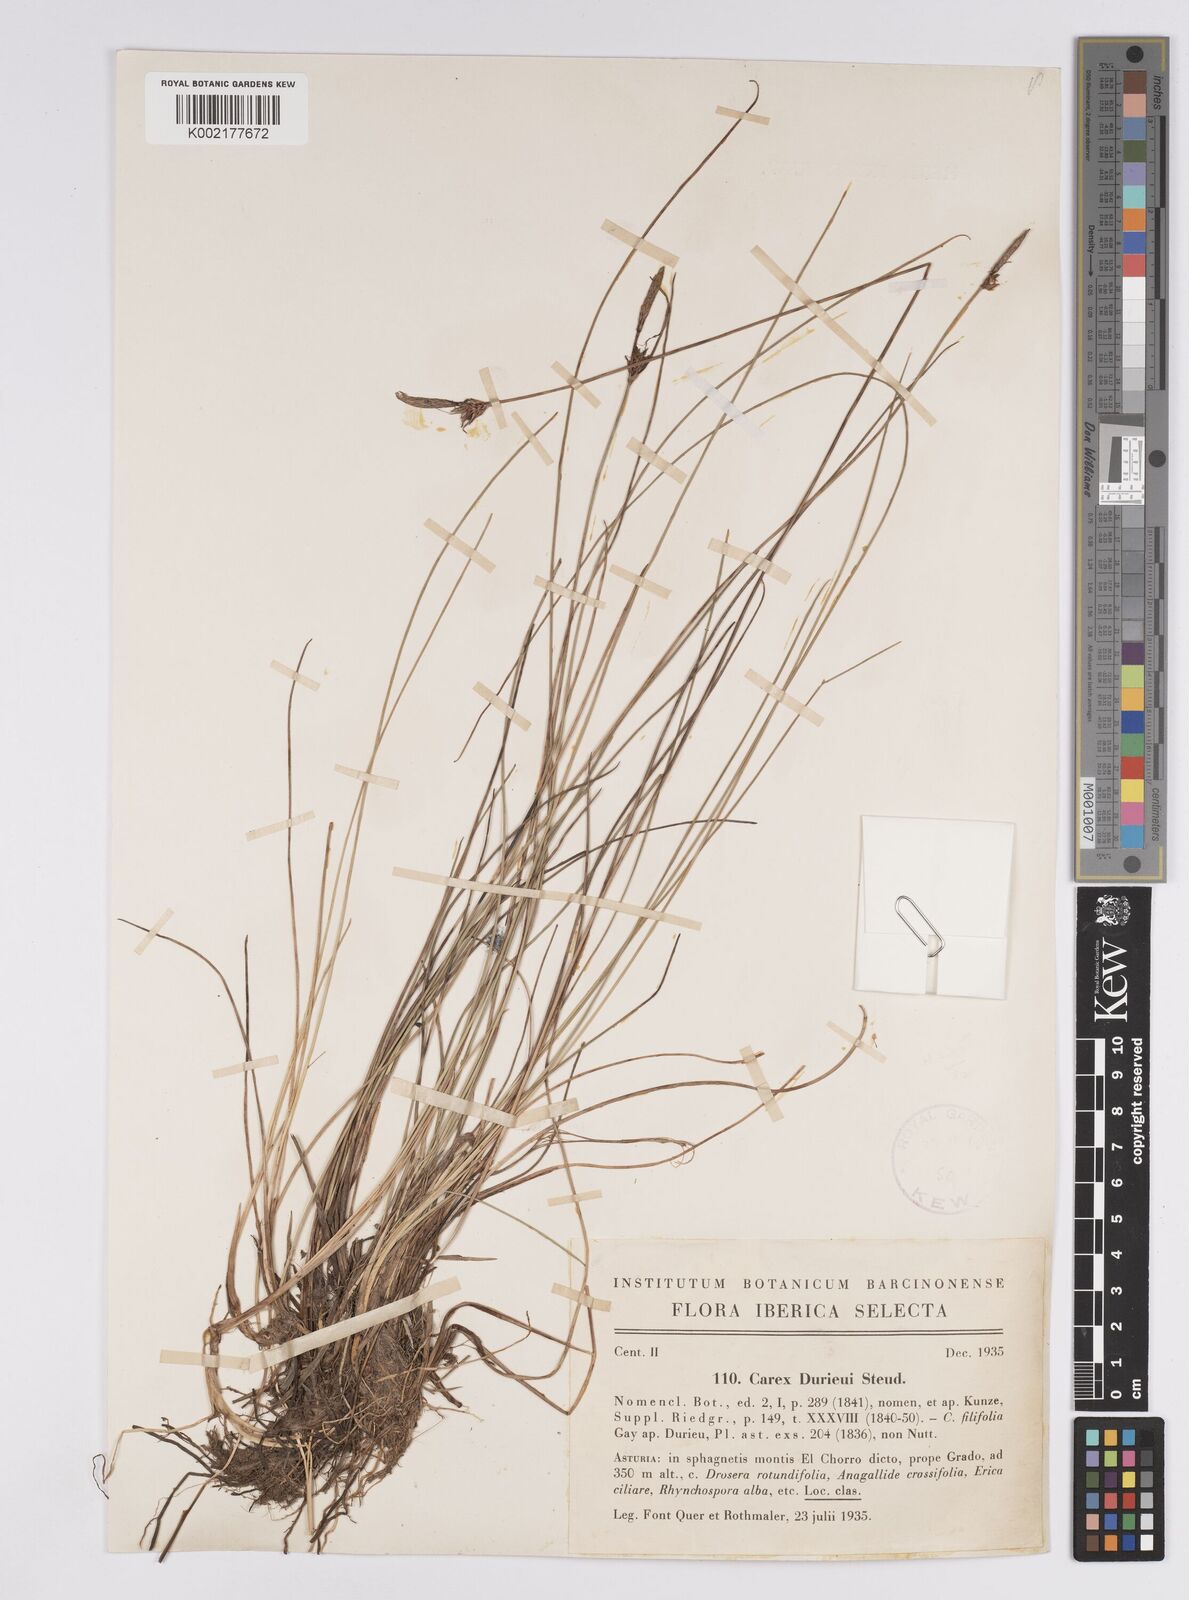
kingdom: Plantae
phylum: Tracheophyta
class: Liliopsida
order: Poales
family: Cyperaceae
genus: Carex
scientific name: Carex durieui
